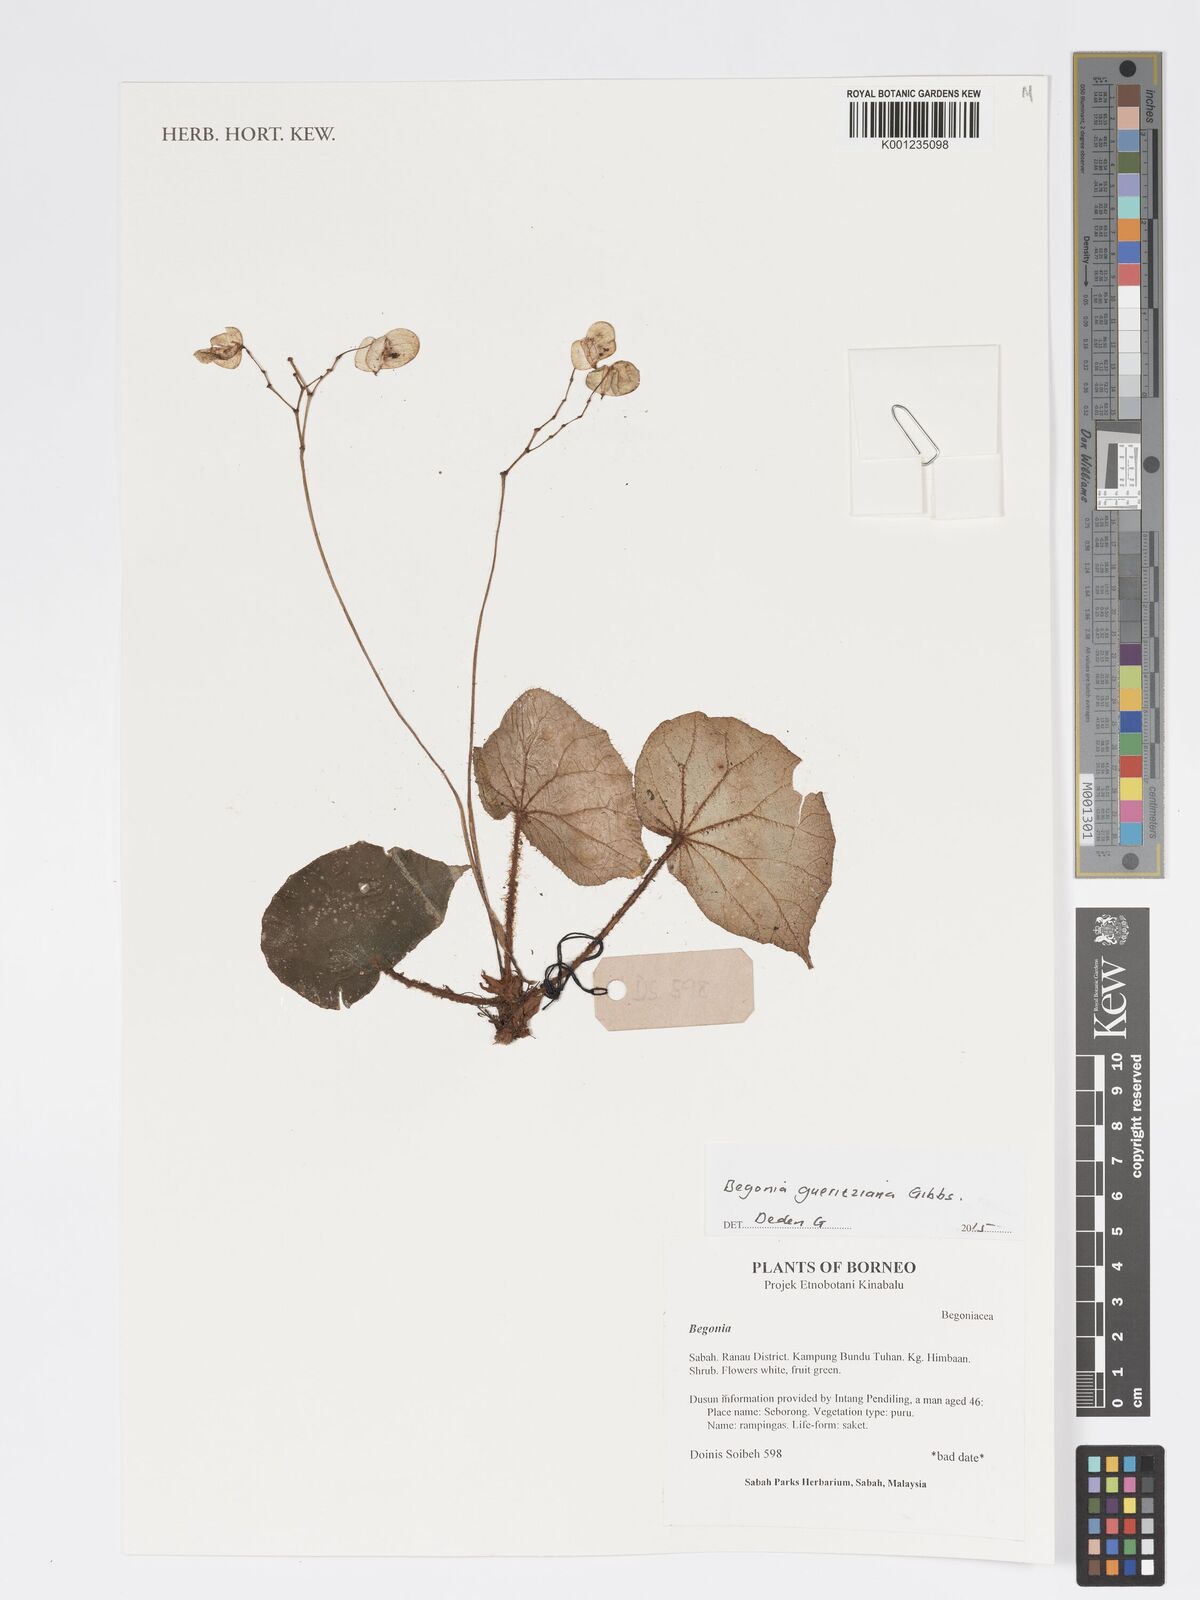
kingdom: Plantae
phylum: Tracheophyta
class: Magnoliopsida
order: Cucurbitales
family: Begoniaceae
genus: Begonia
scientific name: Begonia gueritziana
